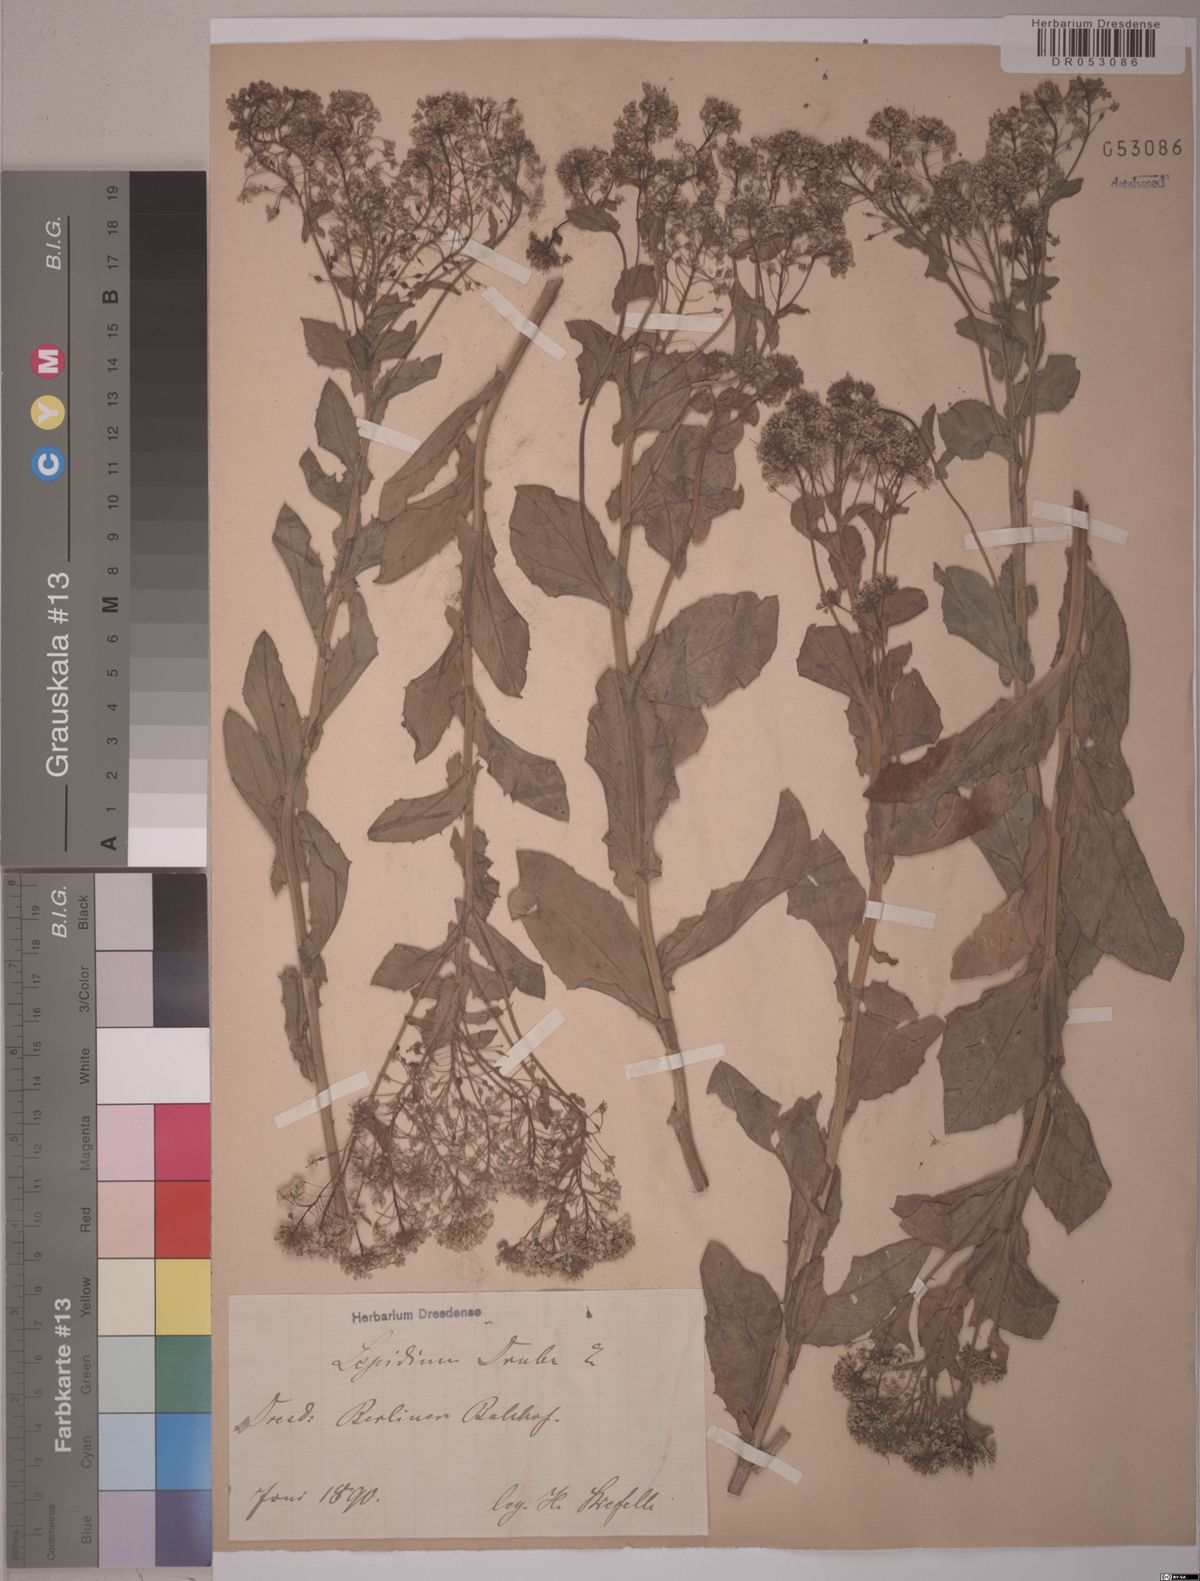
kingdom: Plantae
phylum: Tracheophyta
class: Magnoliopsida
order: Brassicales
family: Brassicaceae
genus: Lepidium
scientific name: Lepidium draba
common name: Hoary cress
